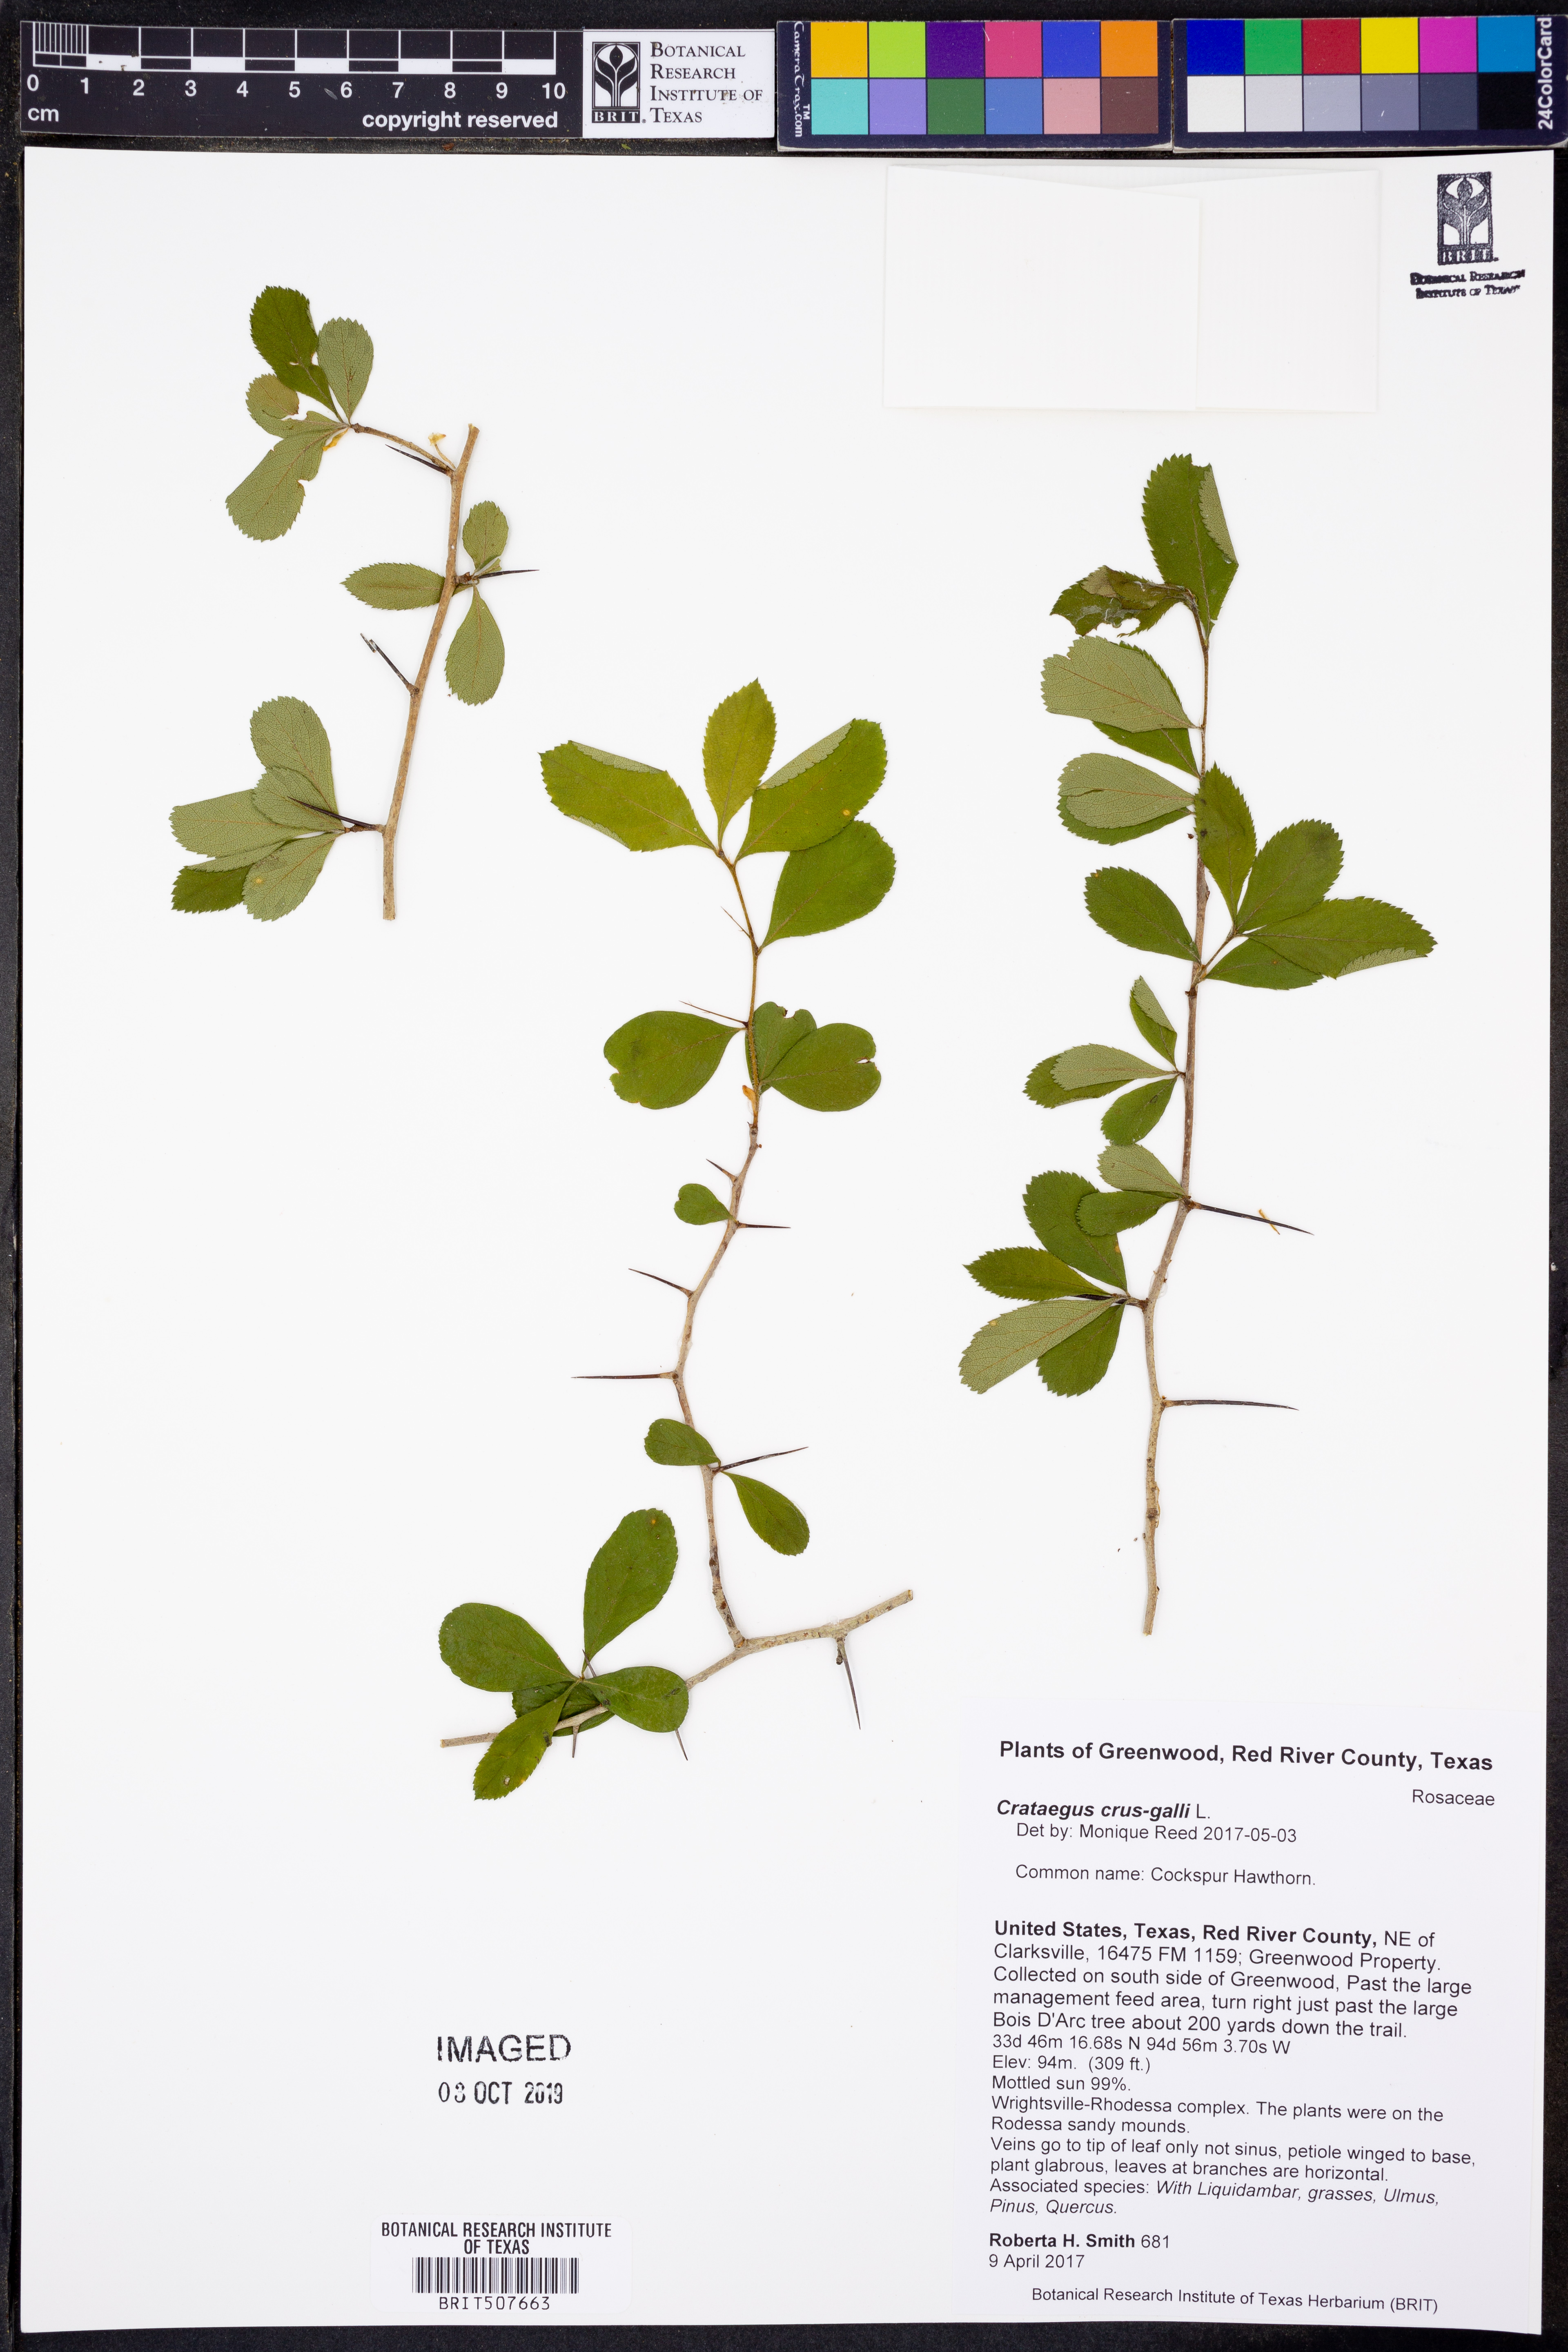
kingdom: Plantae
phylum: Tracheophyta
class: Magnoliopsida
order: Rosales
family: Rosaceae
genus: Crataegus
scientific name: Crataegus crus-galli
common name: Cockspurthorn
